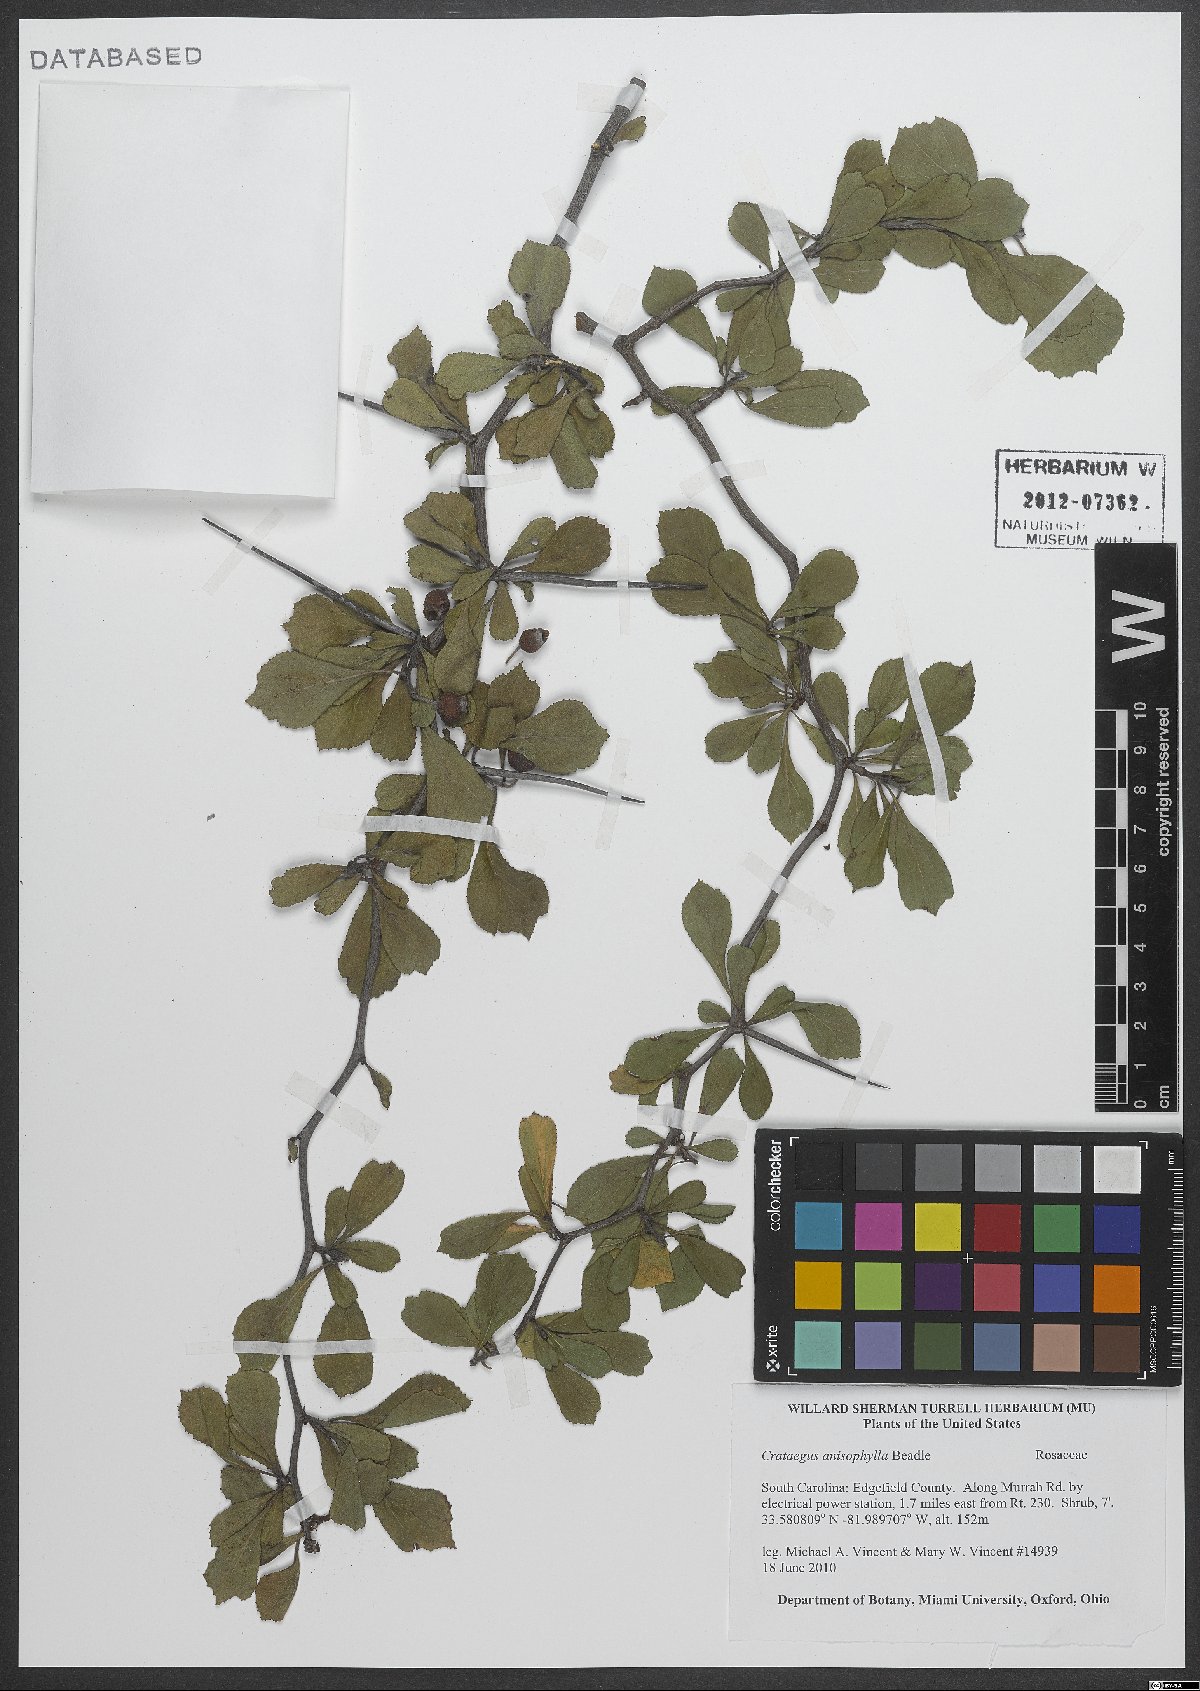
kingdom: Plantae
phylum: Tracheophyta
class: Magnoliopsida
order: Rosales
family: Rosaceae
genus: Crataegus
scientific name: Crataegus floridana
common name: Florida haw
